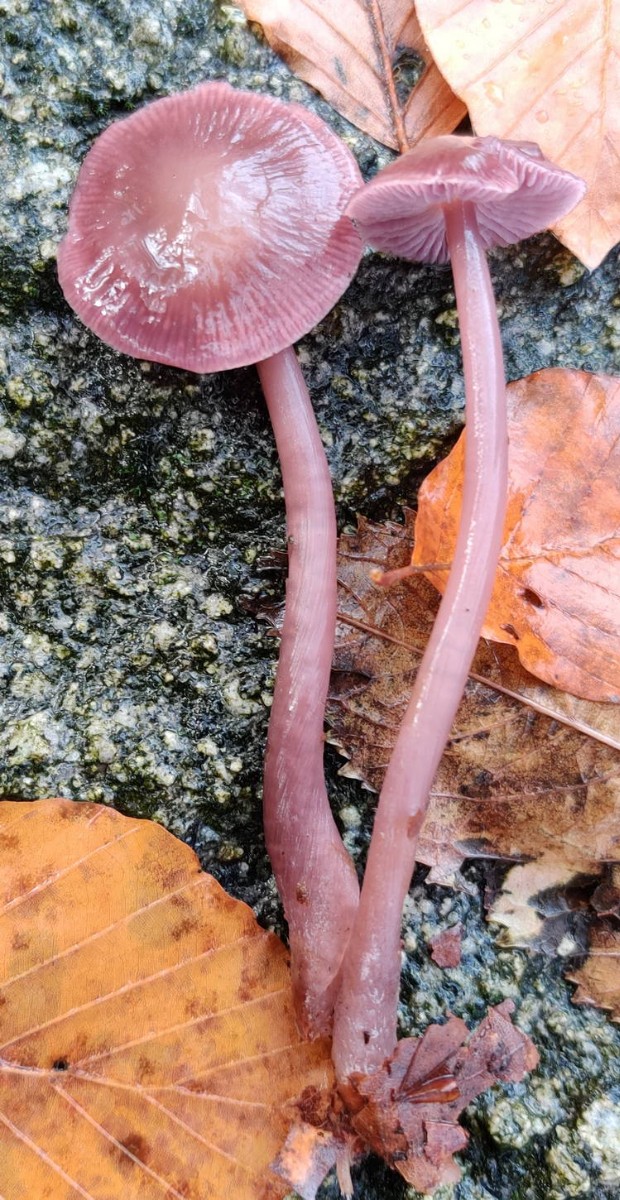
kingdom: Fungi
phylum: Basidiomycota
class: Agaricomycetes
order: Agaricales
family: Mycenaceae
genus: Prunulus
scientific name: Prunulus diosmus
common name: tobaks-huesvamp
